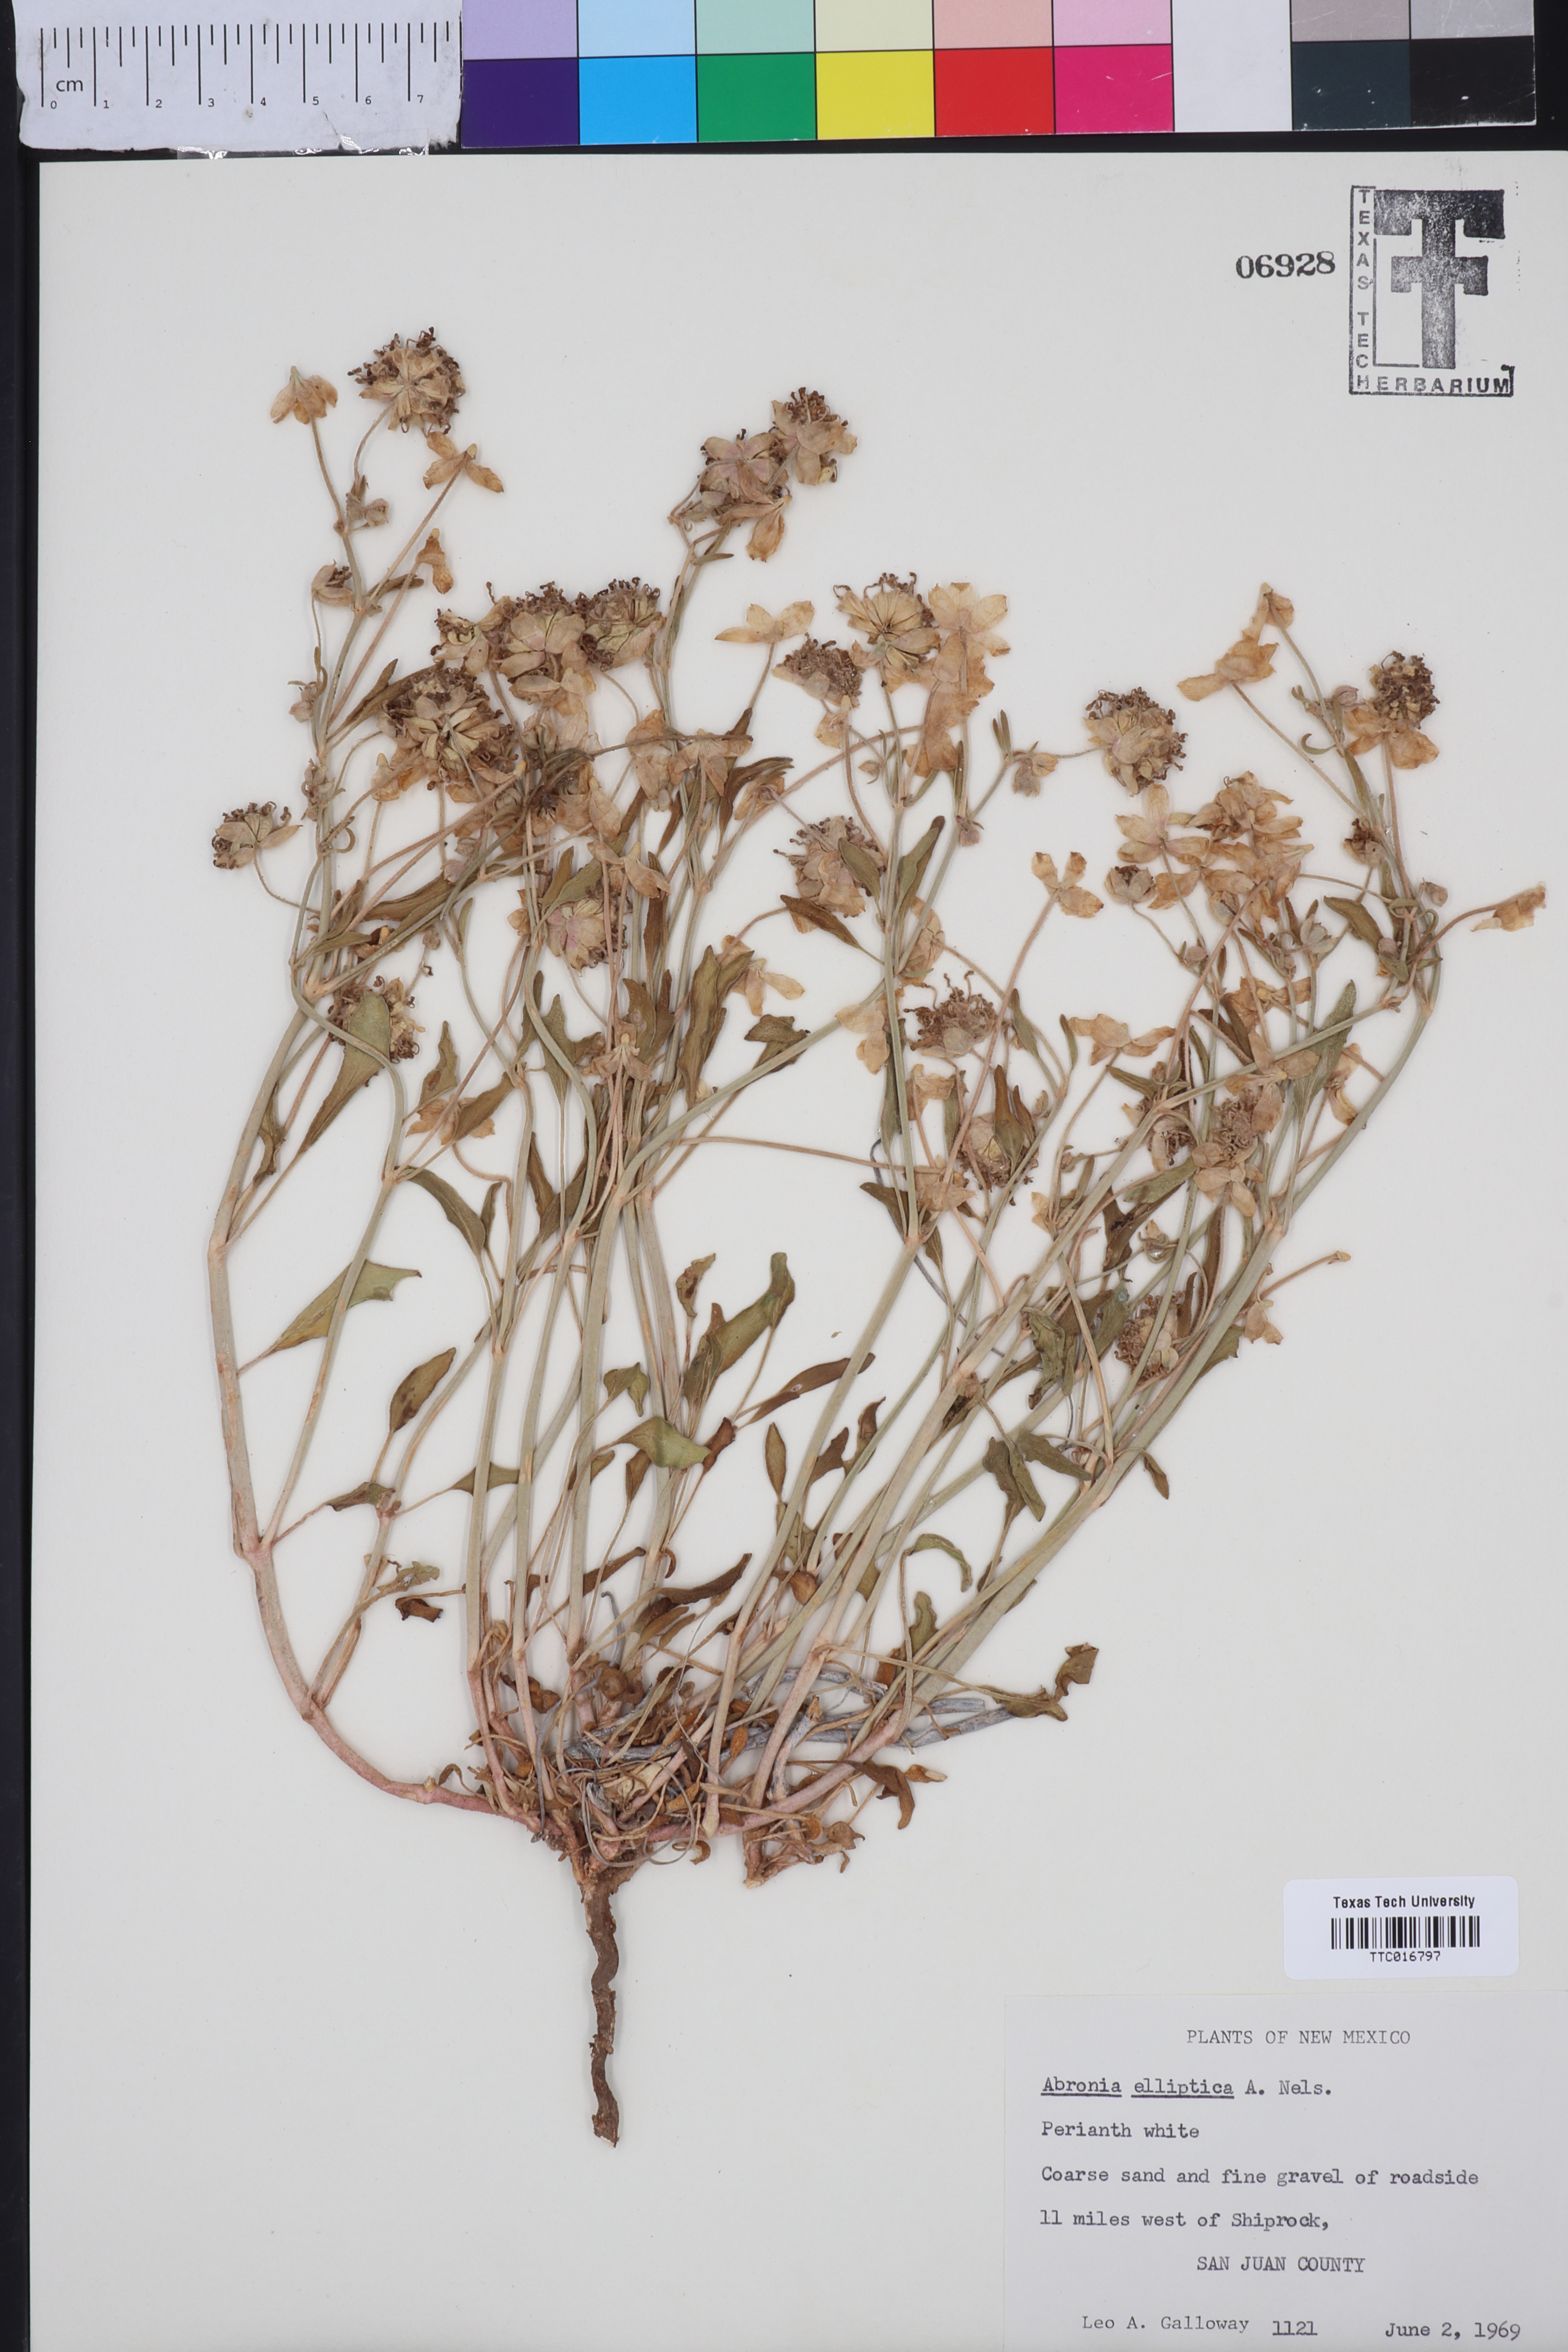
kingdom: Plantae
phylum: Tracheophyta
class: Magnoliopsida
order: Caryophyllales
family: Nyctaginaceae
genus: Abronia
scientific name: Abronia elliptica
